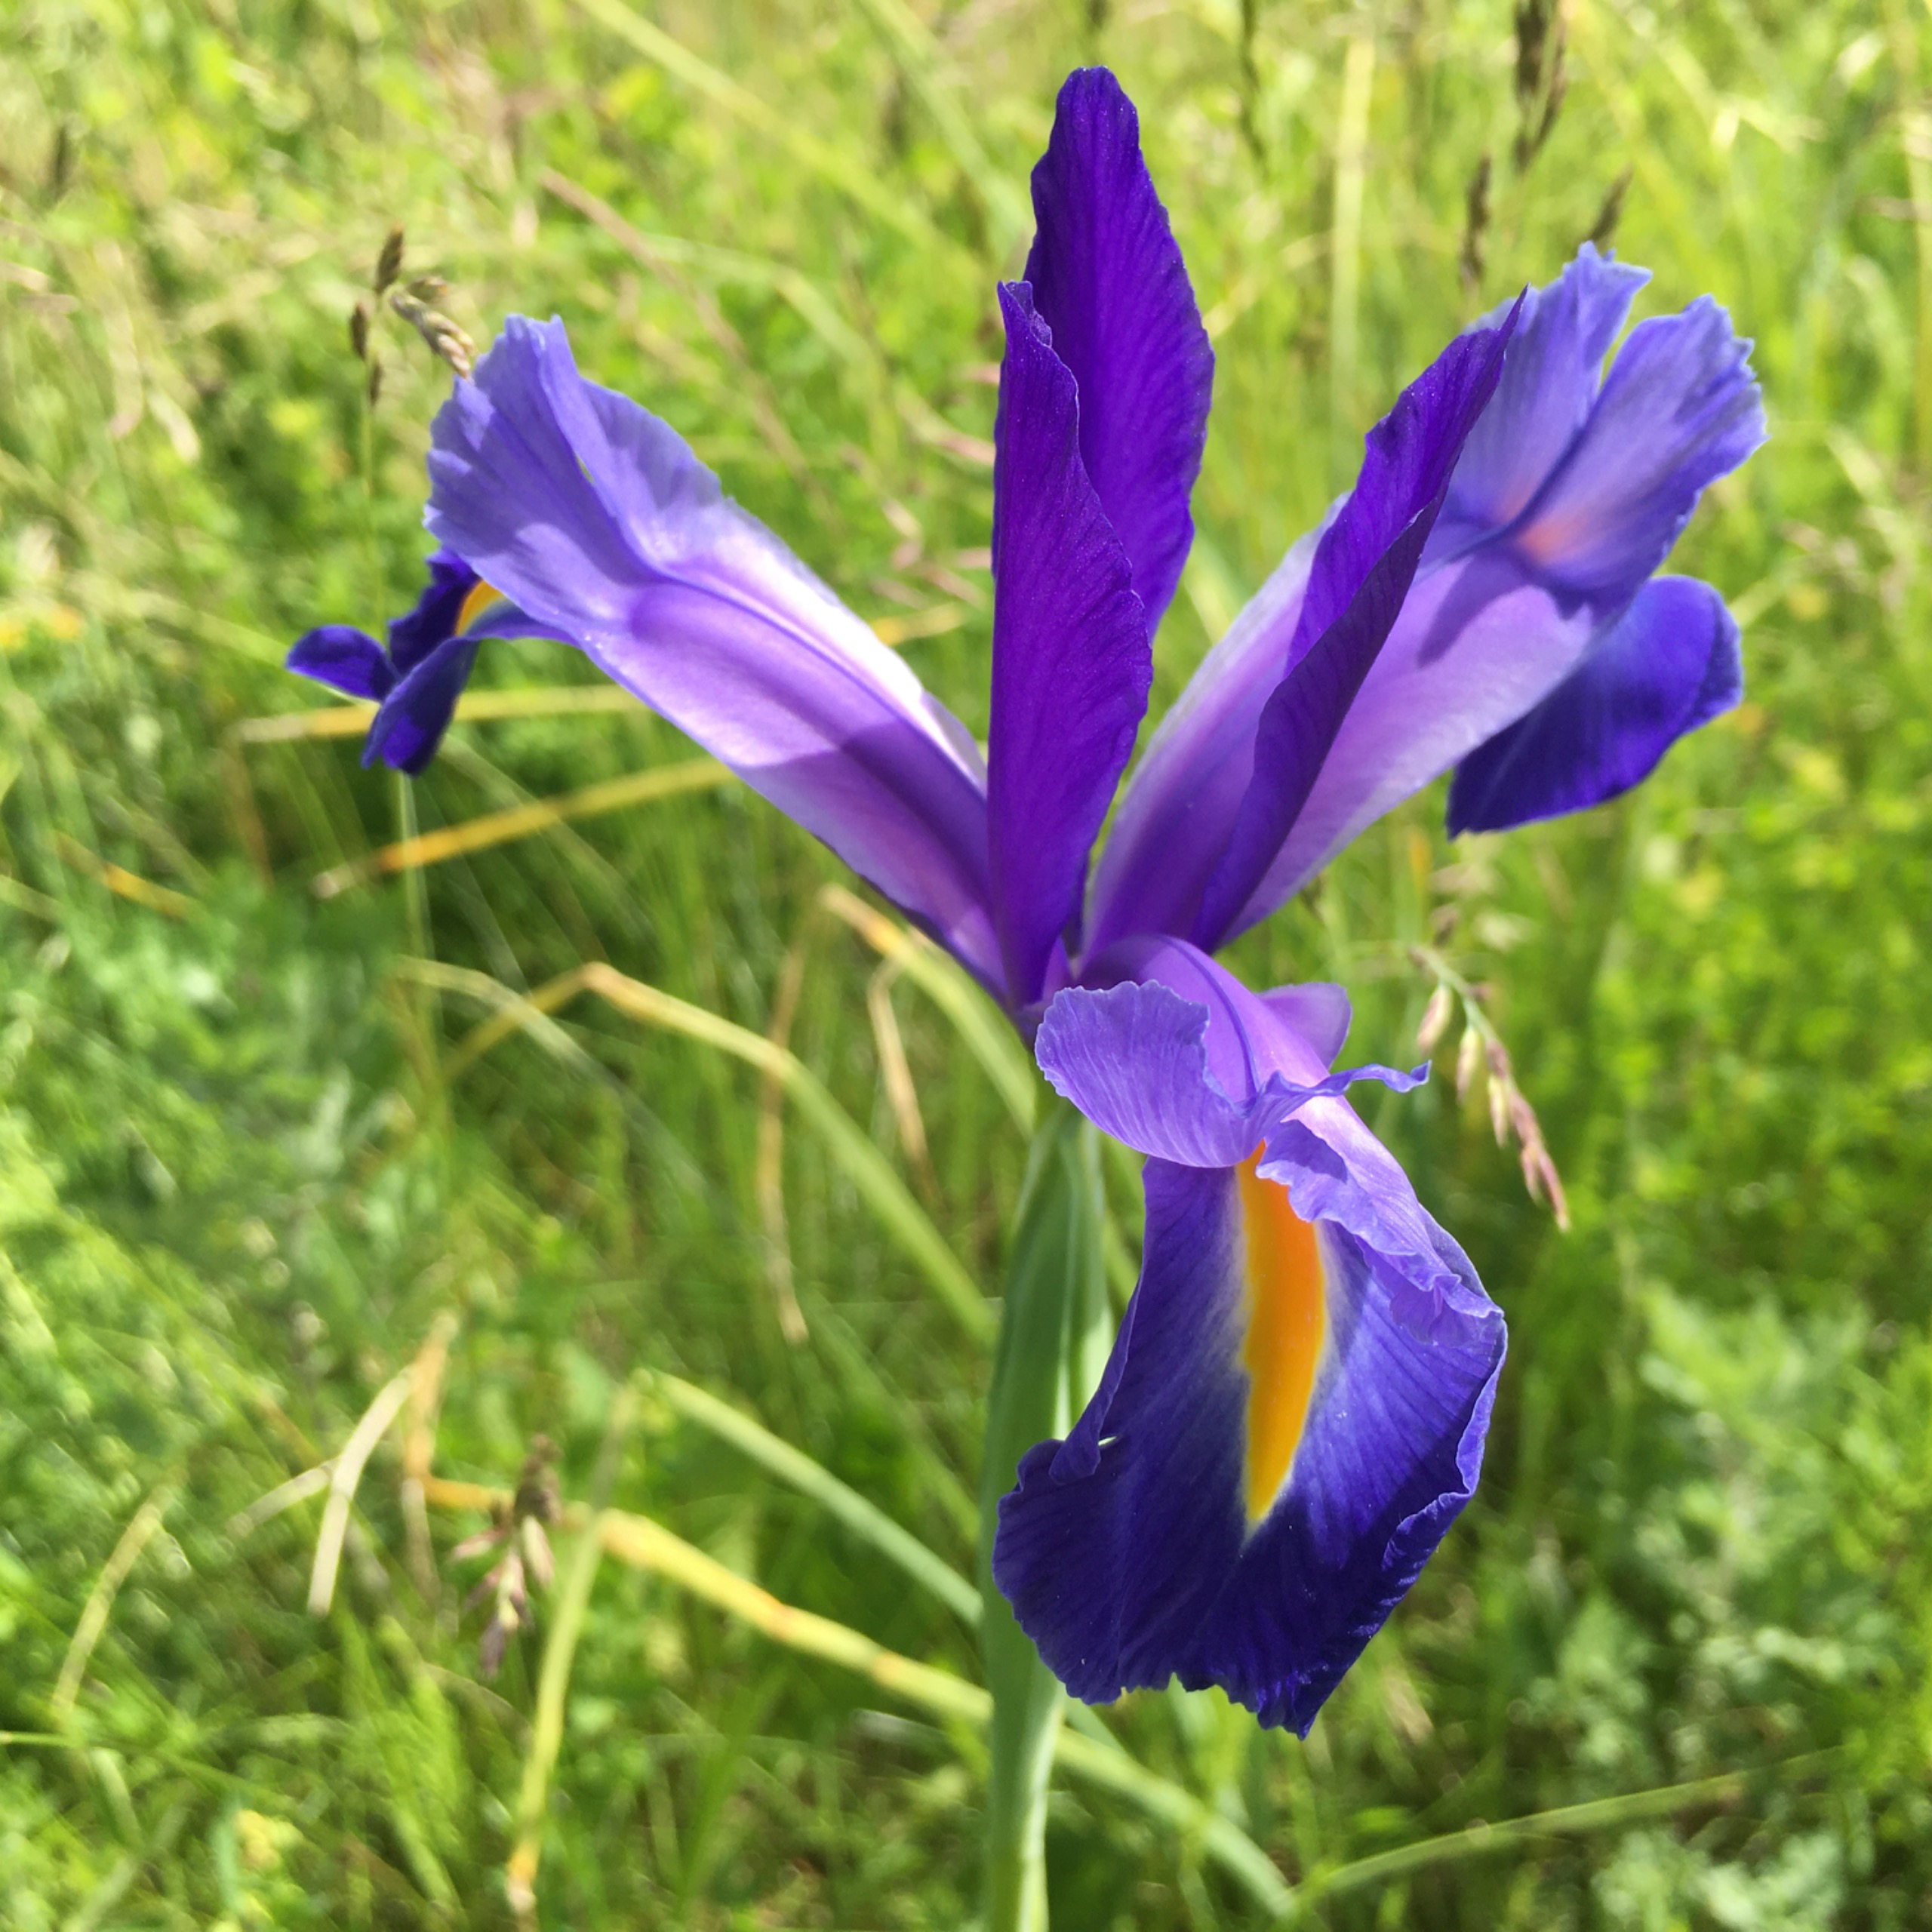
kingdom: Plantae
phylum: Tracheophyta
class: Liliopsida
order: Asparagales
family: Iridaceae
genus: Iris
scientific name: Iris sibirica
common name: Sibirisk iris
